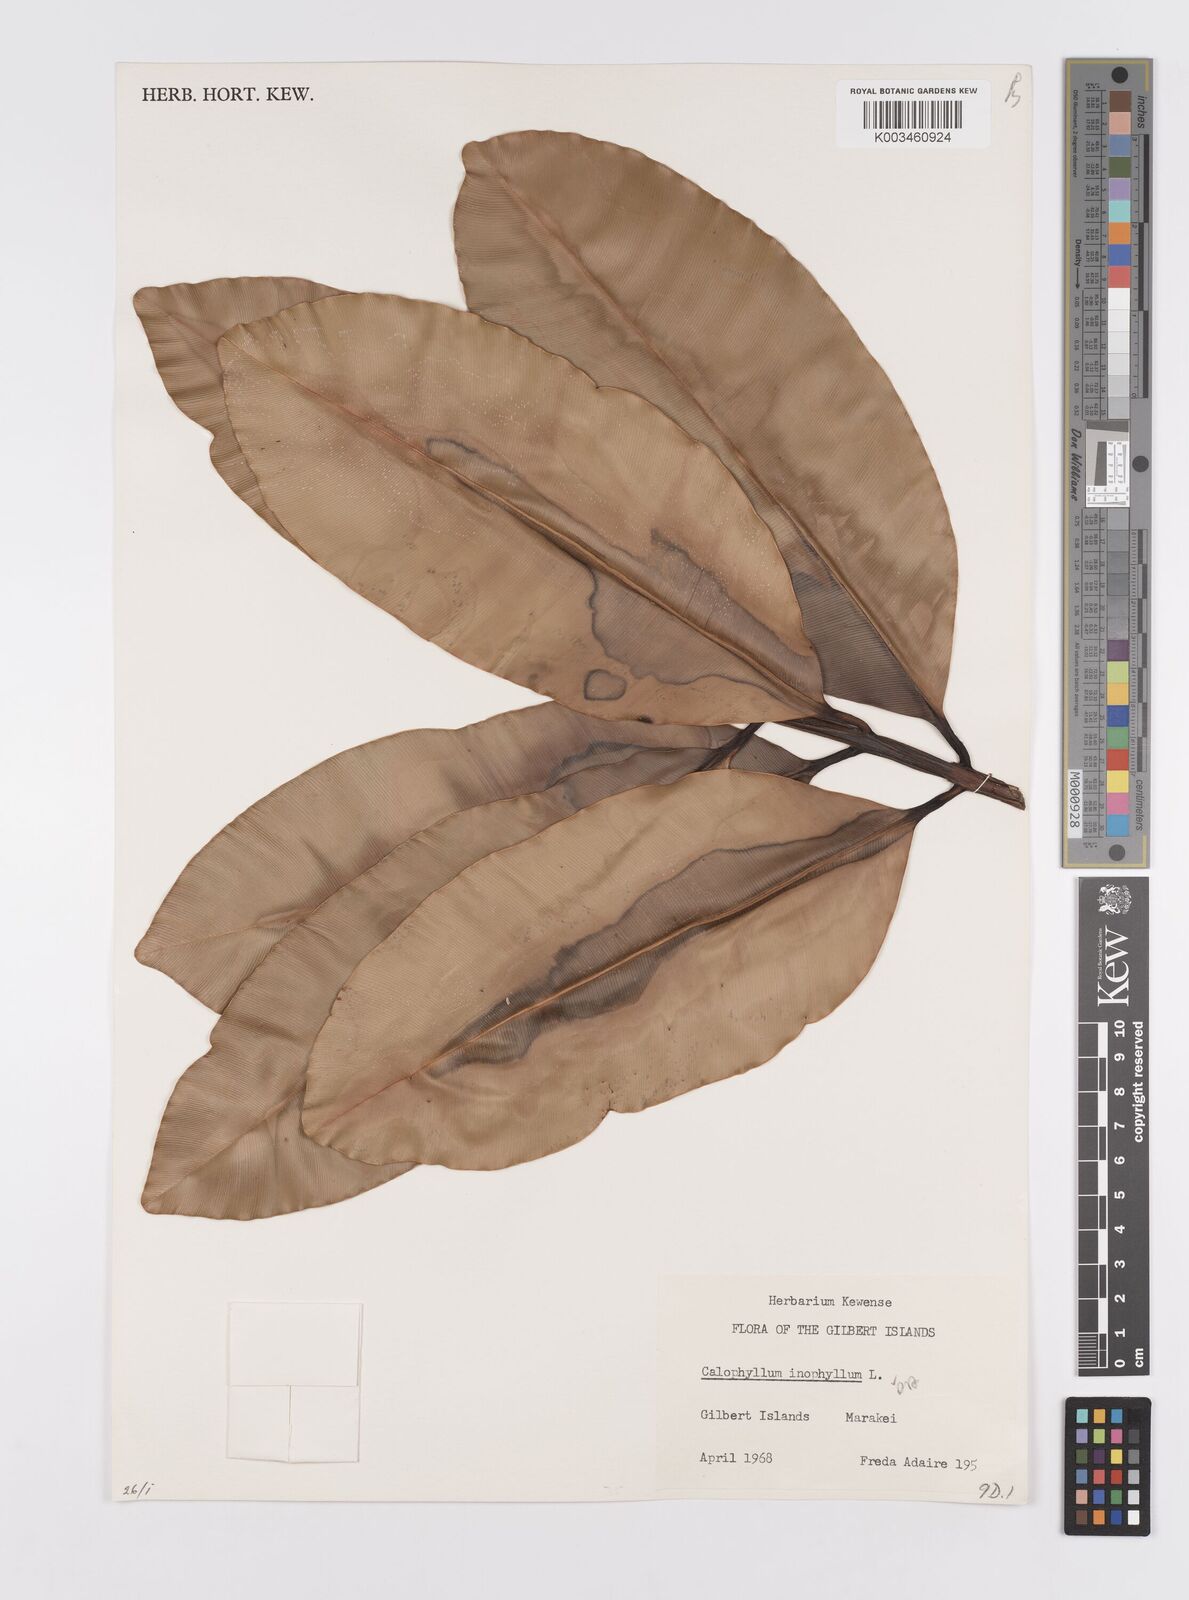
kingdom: Plantae
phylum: Tracheophyta
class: Magnoliopsida
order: Malpighiales
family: Calophyllaceae
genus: Calophyllum
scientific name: Calophyllum inophyllum
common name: Alexandrian laurel
